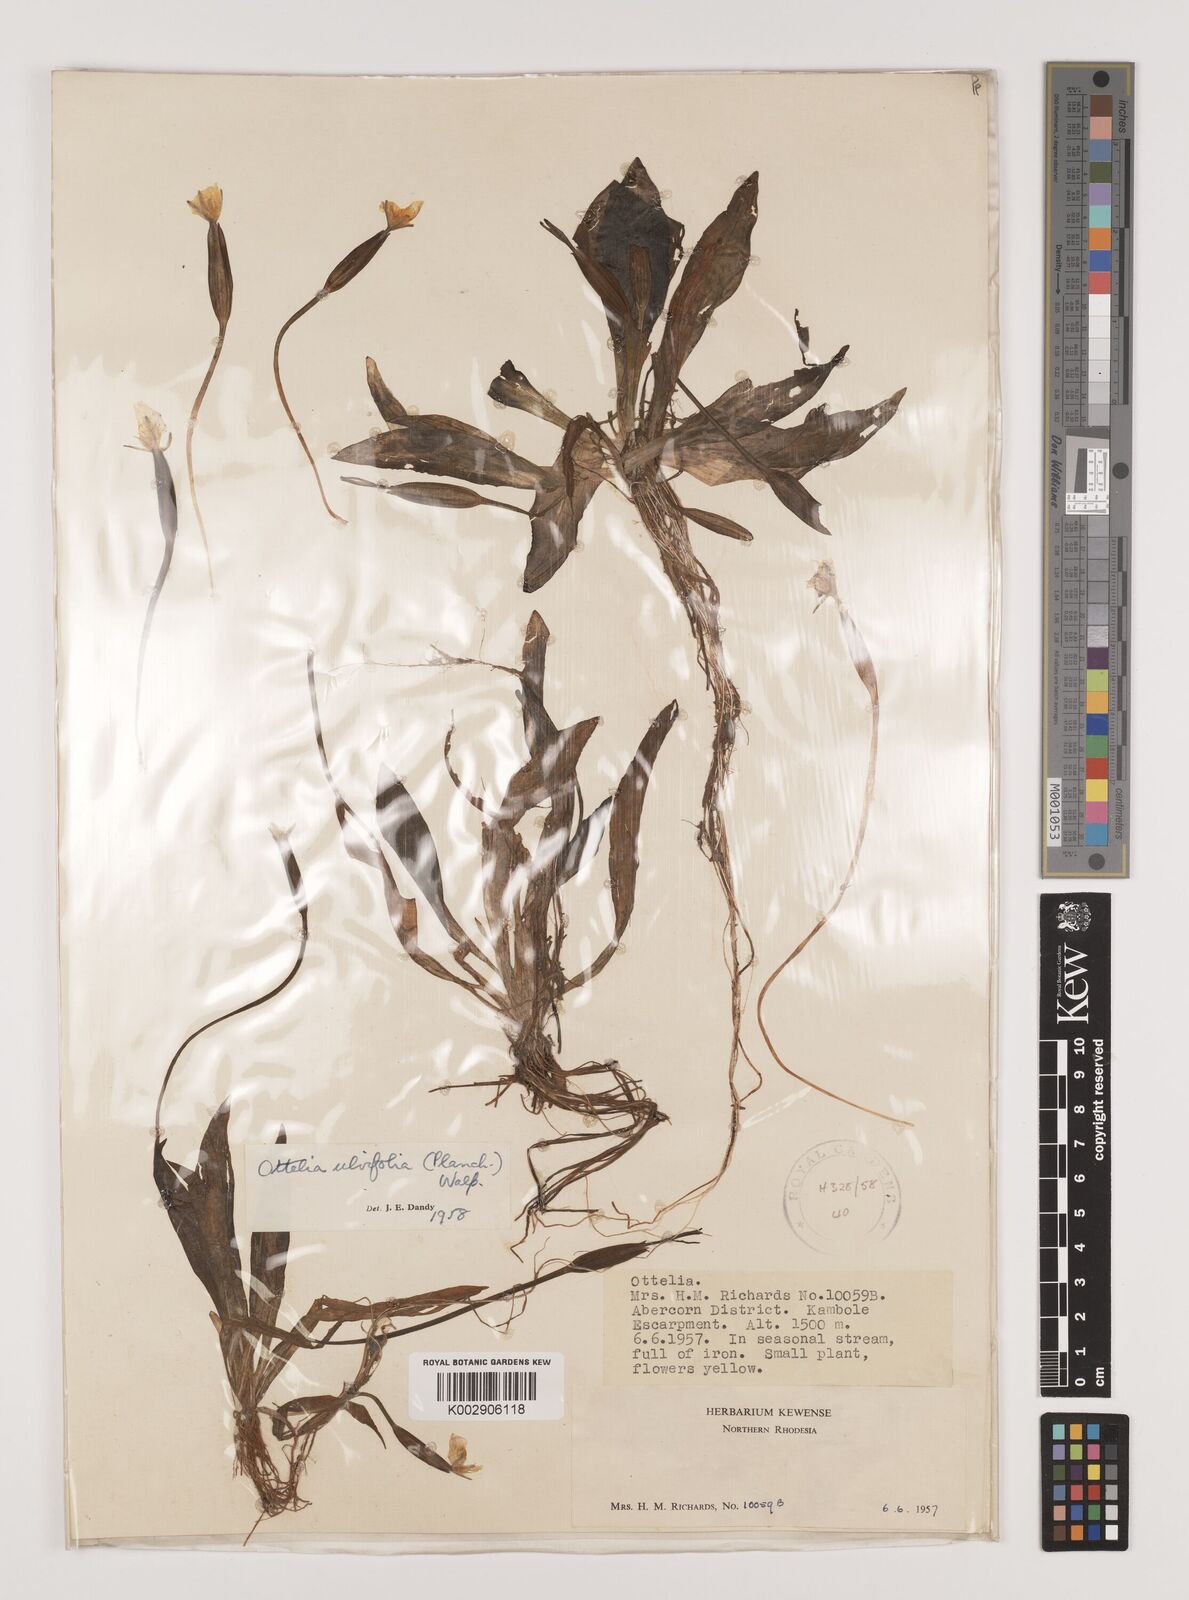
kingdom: Plantae
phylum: Tracheophyta
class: Liliopsida
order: Alismatales
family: Hydrocharitaceae
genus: Ottelia
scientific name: Ottelia ulvifolia
